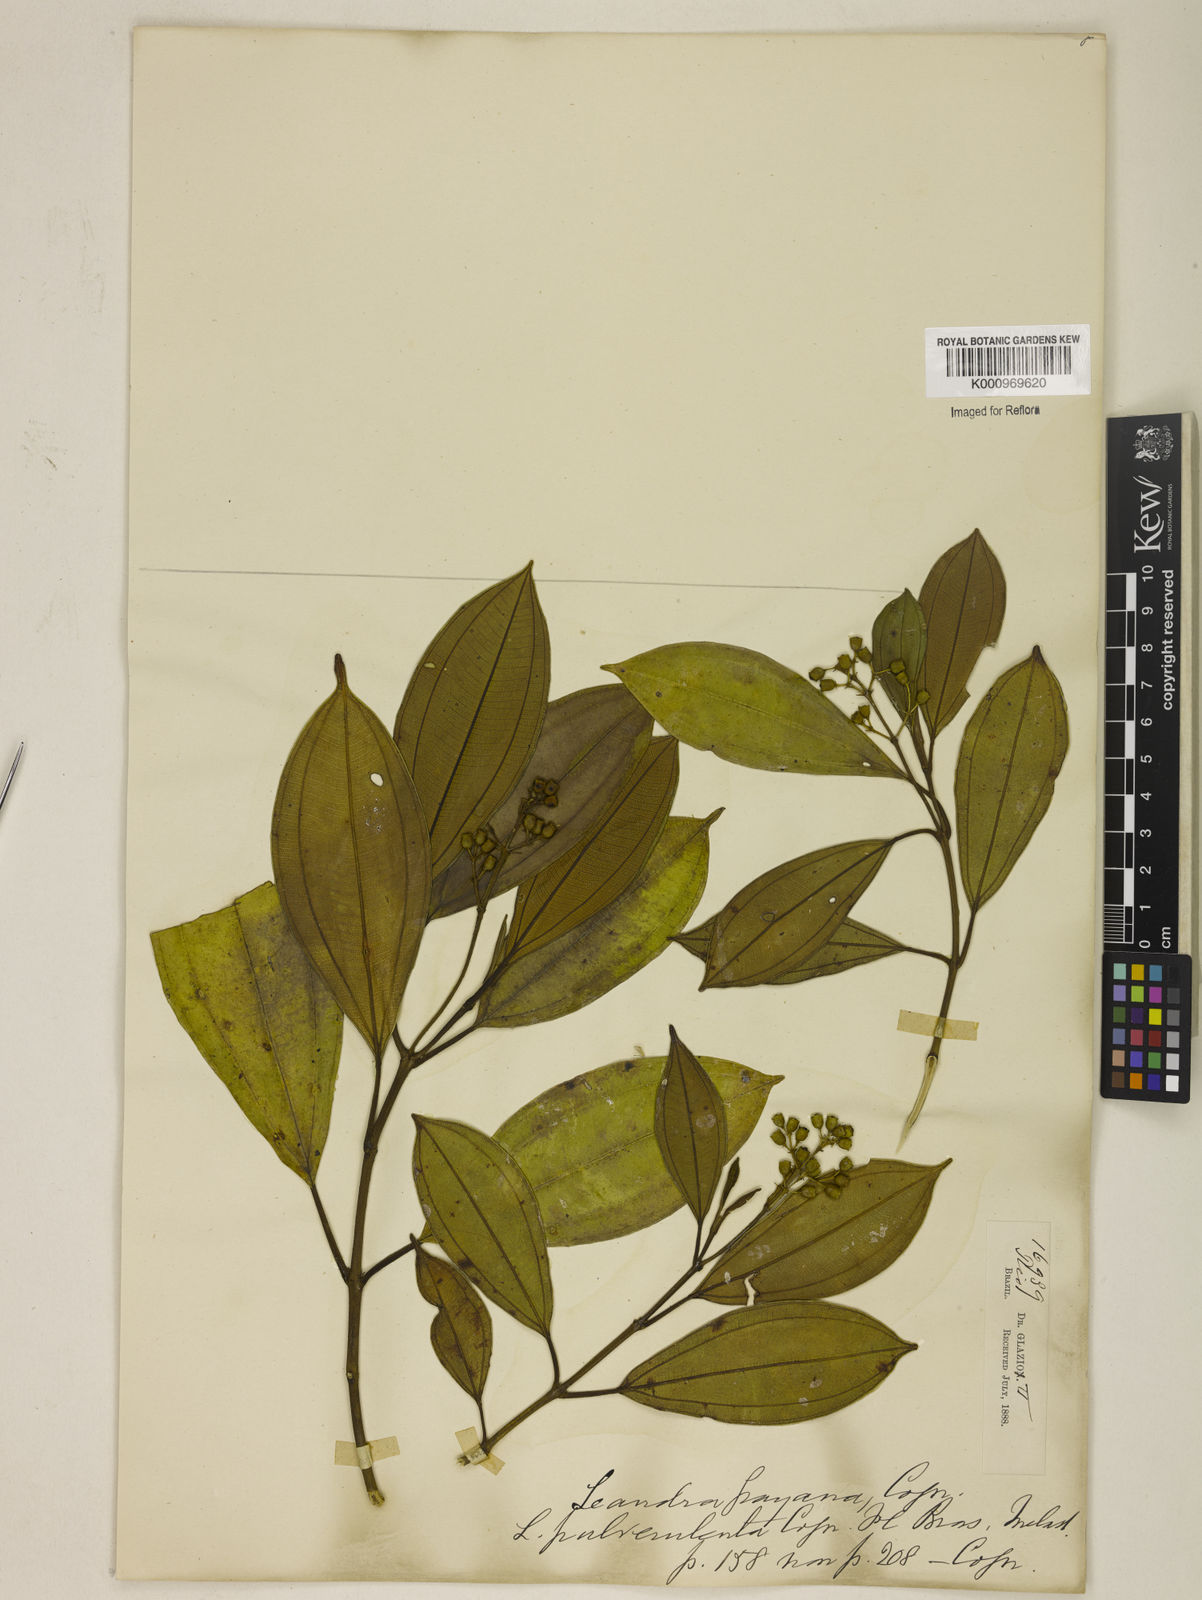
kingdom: Plantae
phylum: Tracheophyta
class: Magnoliopsida
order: Myrtales
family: Melastomataceae
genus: Miconia
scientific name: Miconia leagrayana
